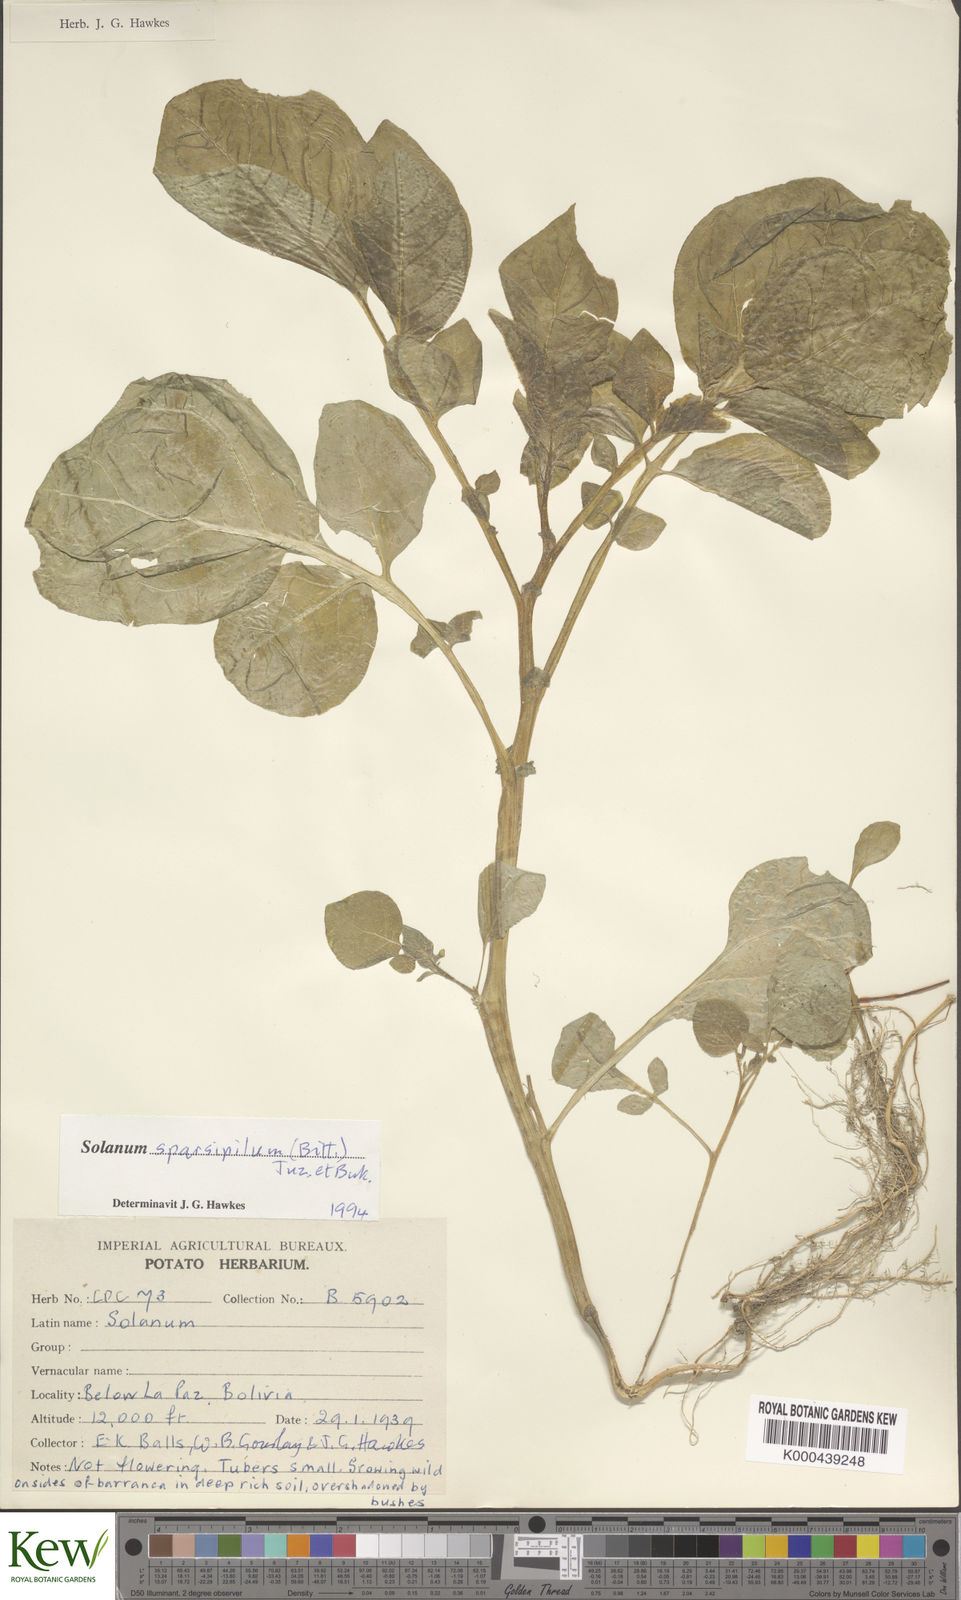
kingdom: Plantae
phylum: Tracheophyta
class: Magnoliopsida
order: Solanales
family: Solanaceae
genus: Solanum
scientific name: Solanum brevicaule
